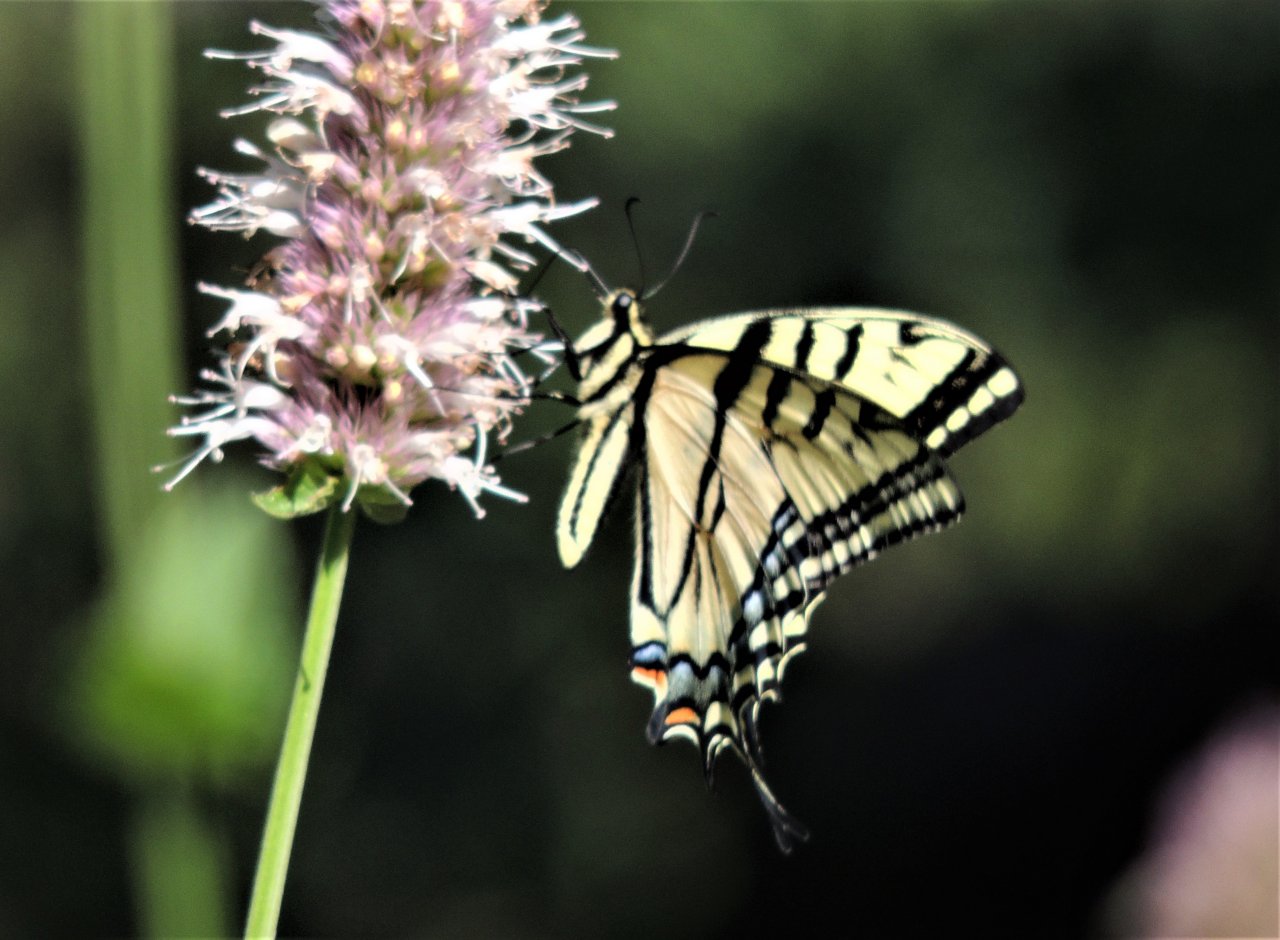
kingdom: Animalia
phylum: Arthropoda
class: Insecta
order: Lepidoptera
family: Papilionidae
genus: Papilio
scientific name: Papilio multicaudata
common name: Two-tailed Swallowtail
